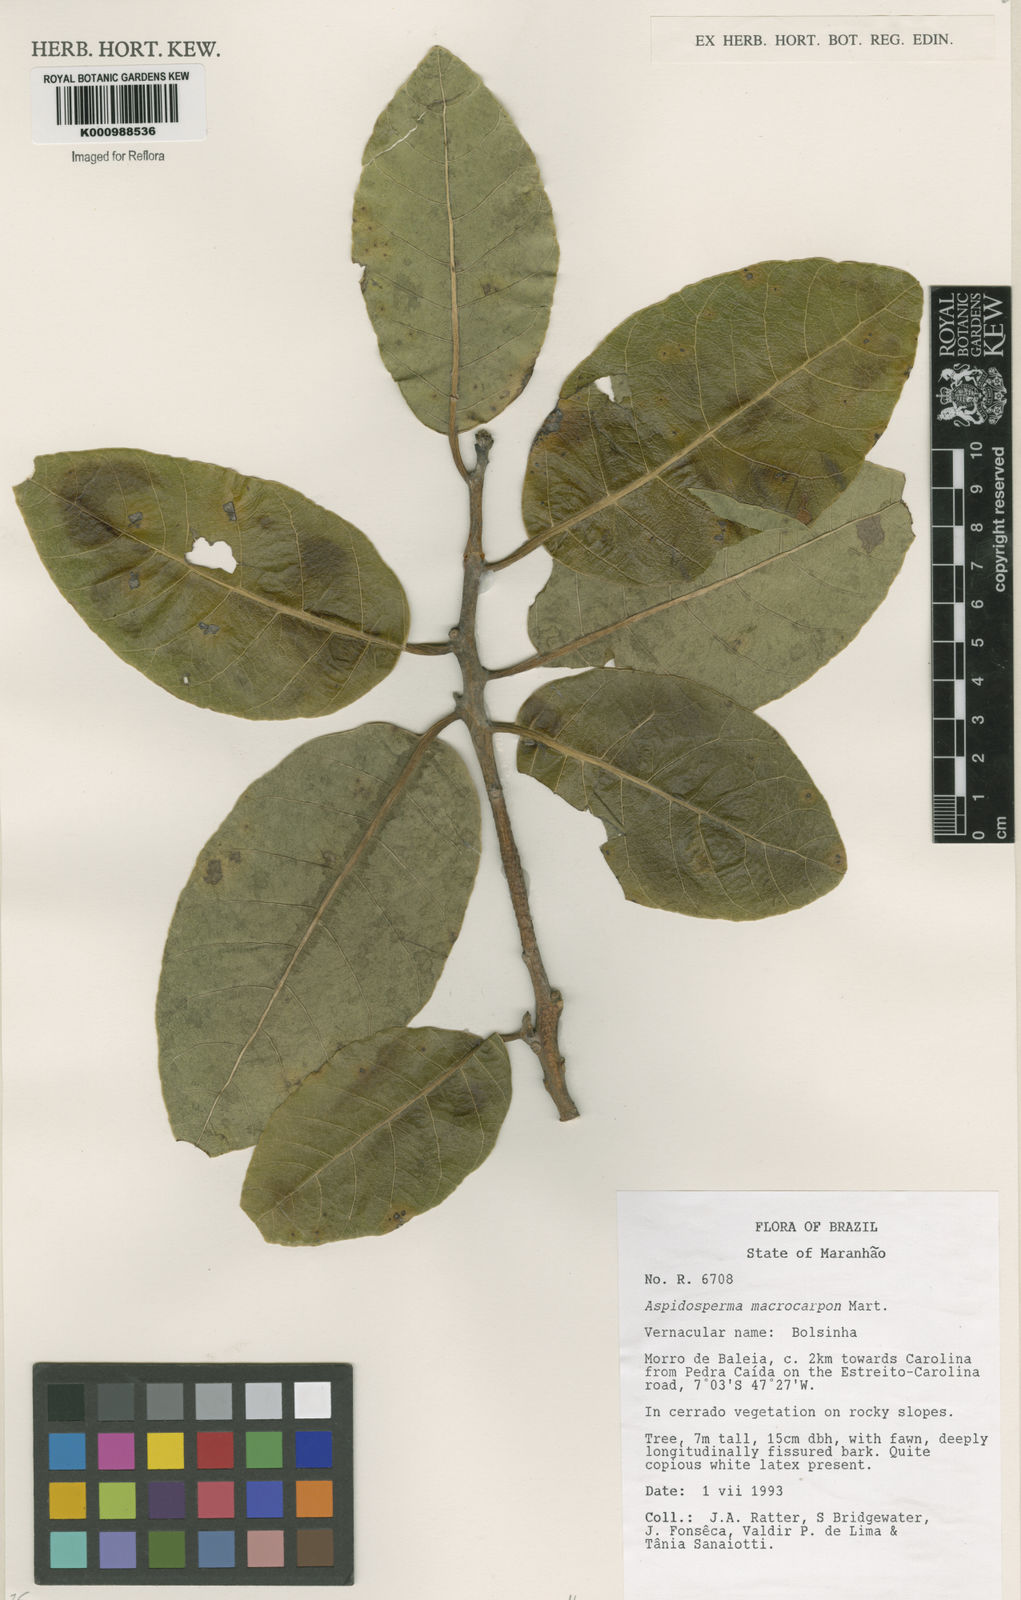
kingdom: Plantae
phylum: Tracheophyta
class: Magnoliopsida
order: Gentianales
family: Apocynaceae
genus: Aspidosperma
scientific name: Aspidosperma macrocarpon
